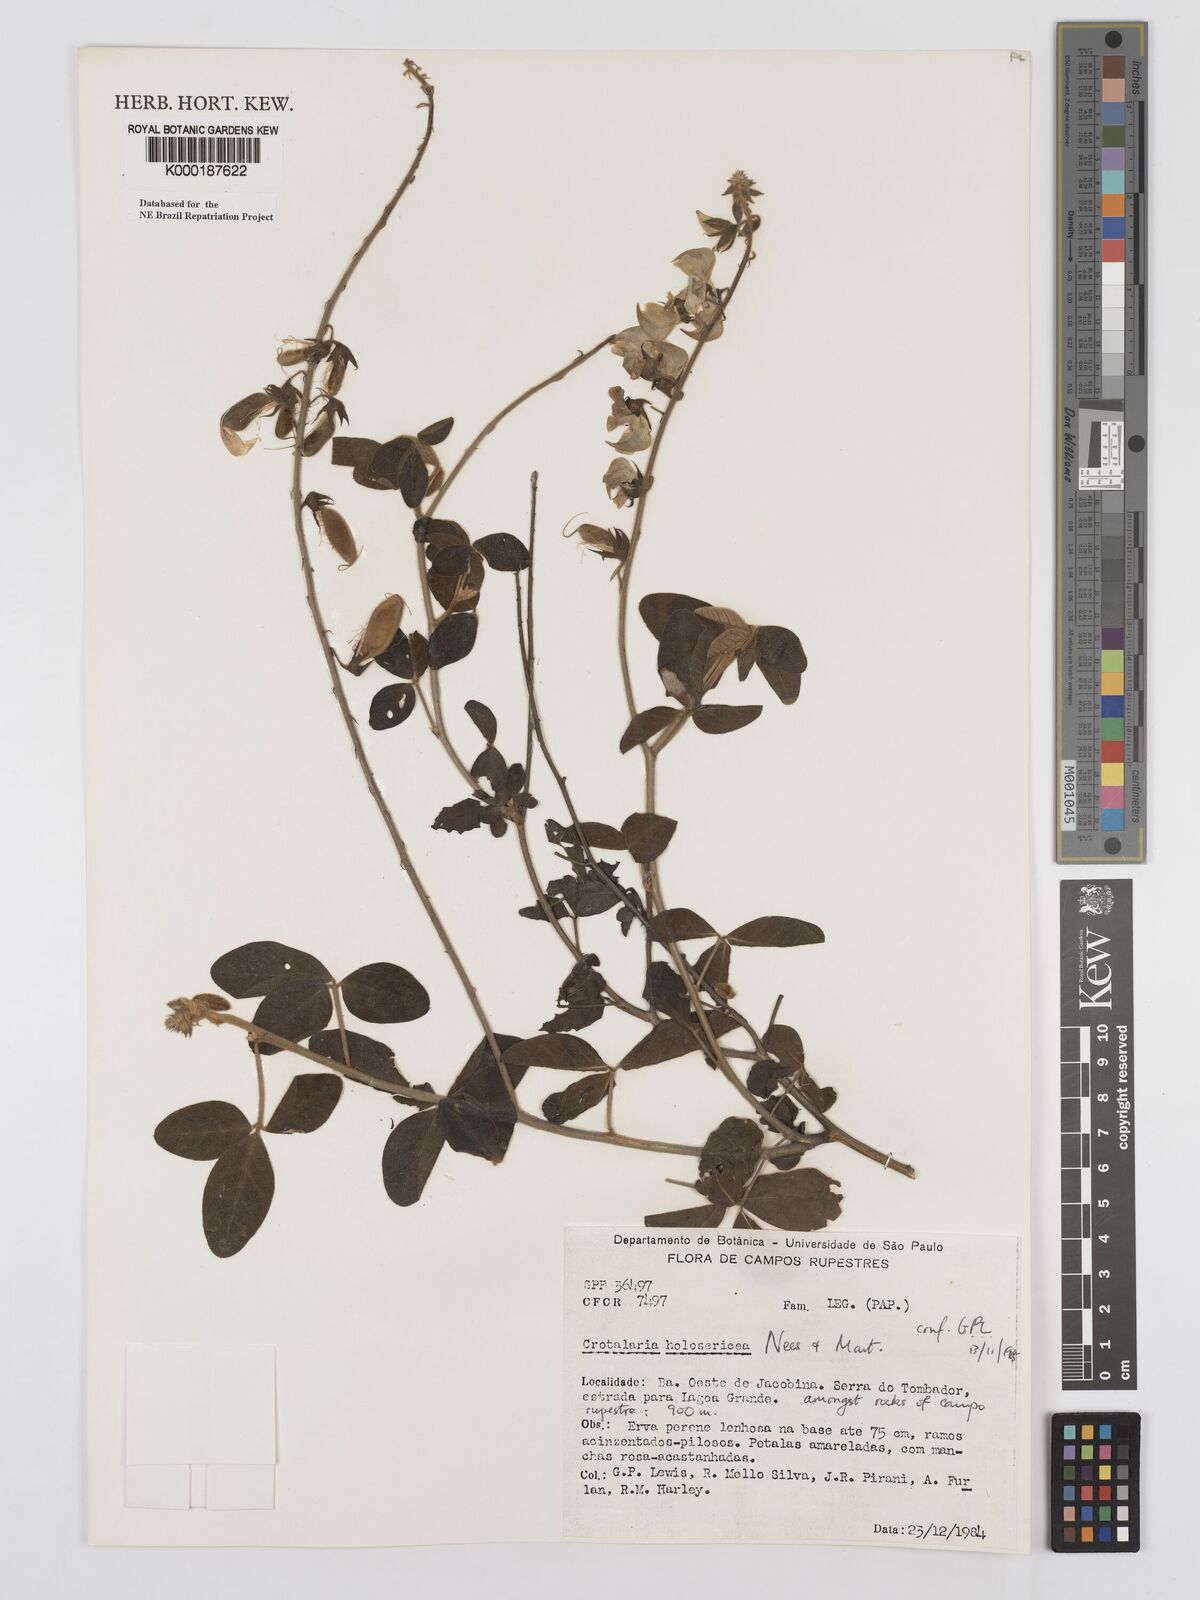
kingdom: Plantae
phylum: Tracheophyta
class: Magnoliopsida
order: Fabales
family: Fabaceae
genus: Crotalaria
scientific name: Crotalaria holosericea
